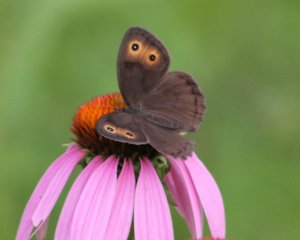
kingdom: Animalia
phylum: Arthropoda
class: Insecta
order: Lepidoptera
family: Nymphalidae
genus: Cercyonis
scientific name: Cercyonis pegala
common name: Common Wood-Nymph
